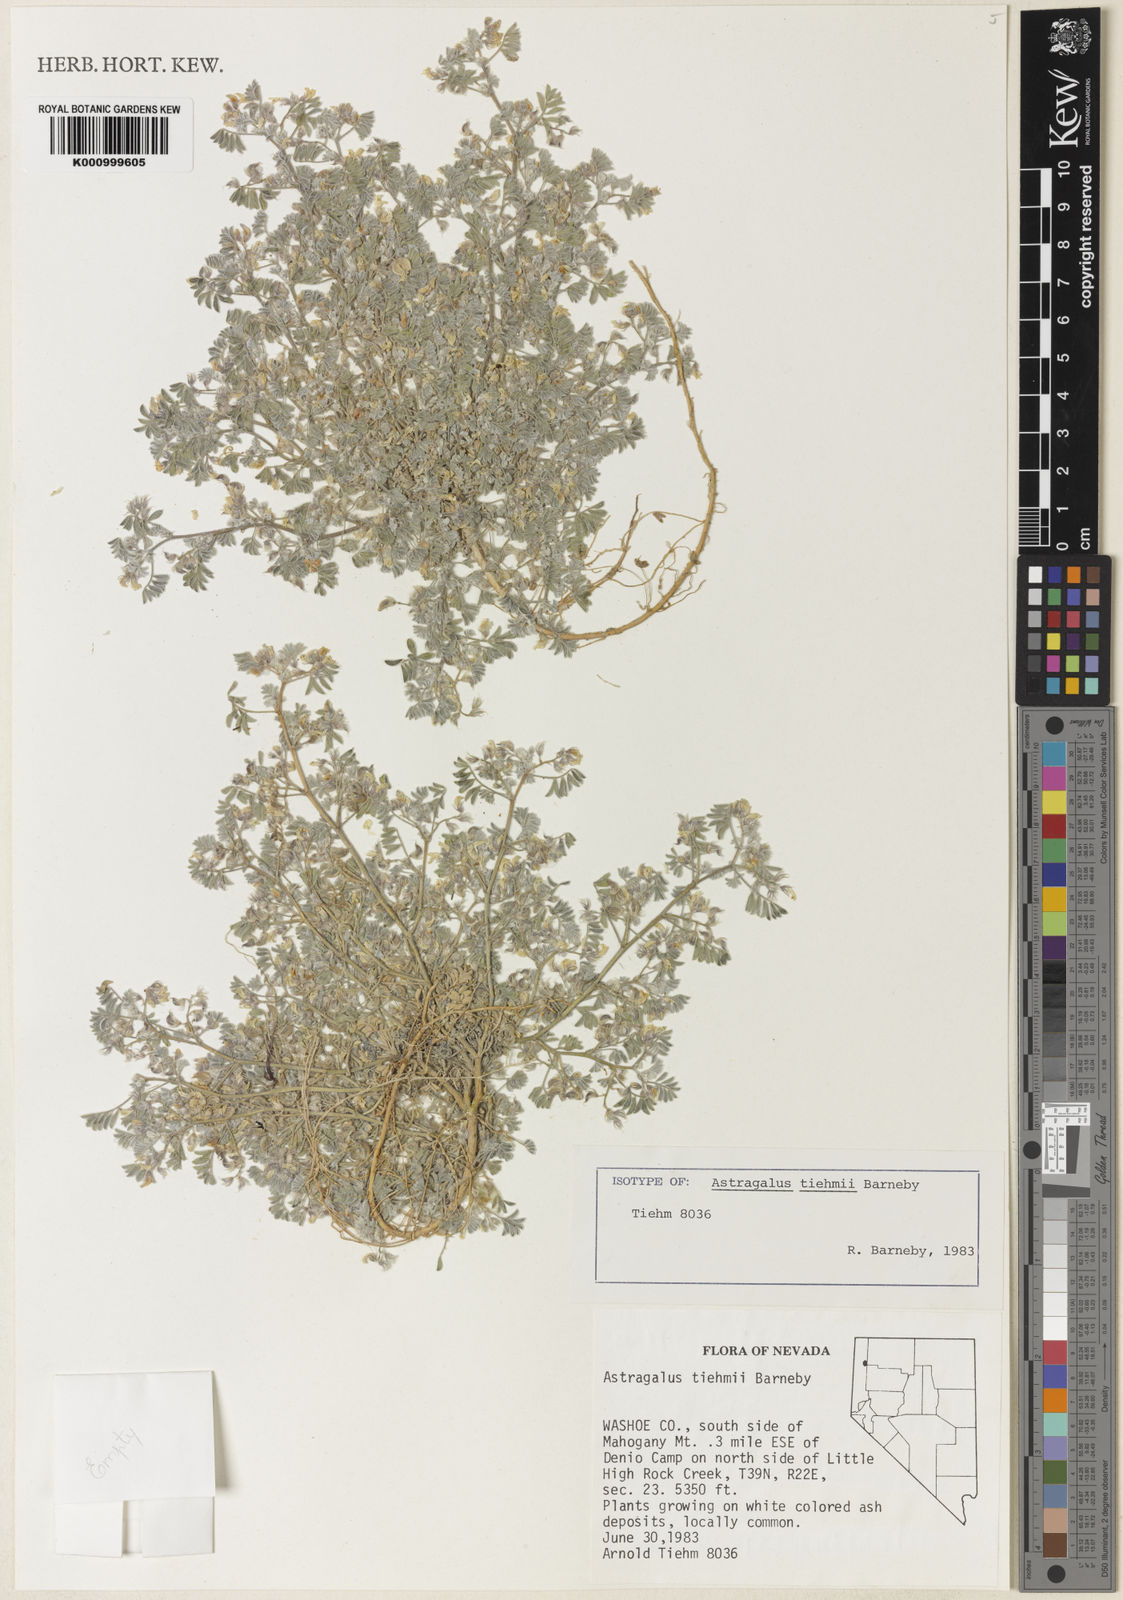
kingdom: Plantae
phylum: Tracheophyta
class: Magnoliopsida
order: Fabales
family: Fabaceae
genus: Astragalus
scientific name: Astragalus tiehmii
